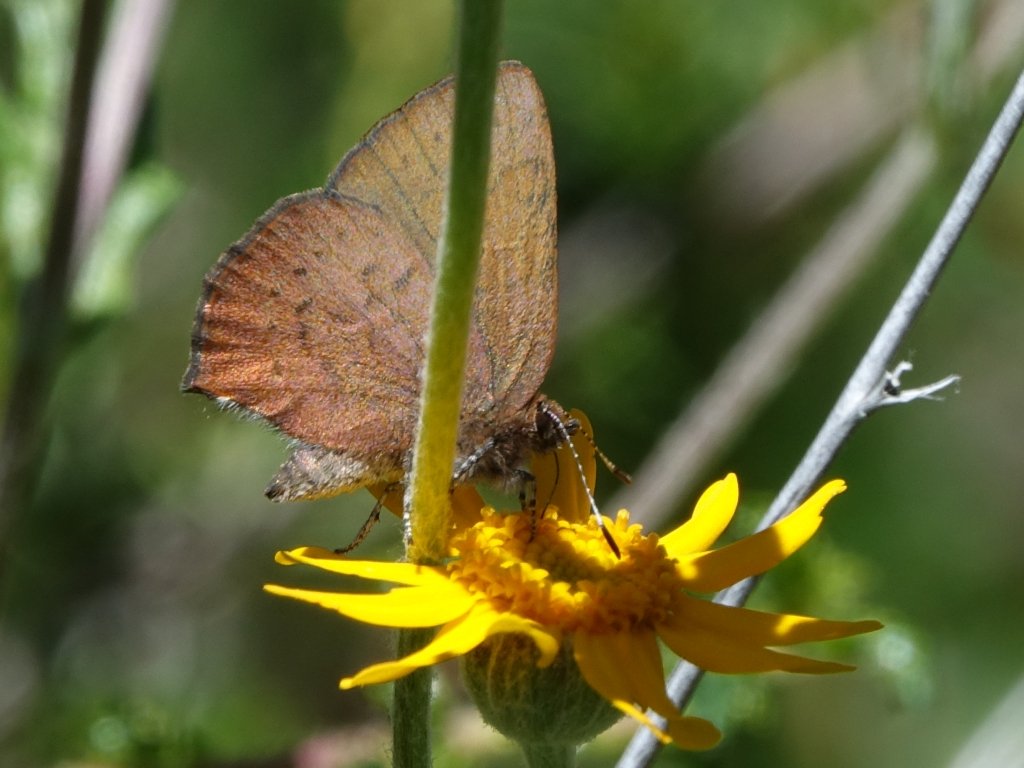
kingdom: Animalia
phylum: Arthropoda
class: Insecta
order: Lepidoptera
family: Lycaenidae
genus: Incisalia
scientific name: Incisalia irioides
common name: Brown Elfin
